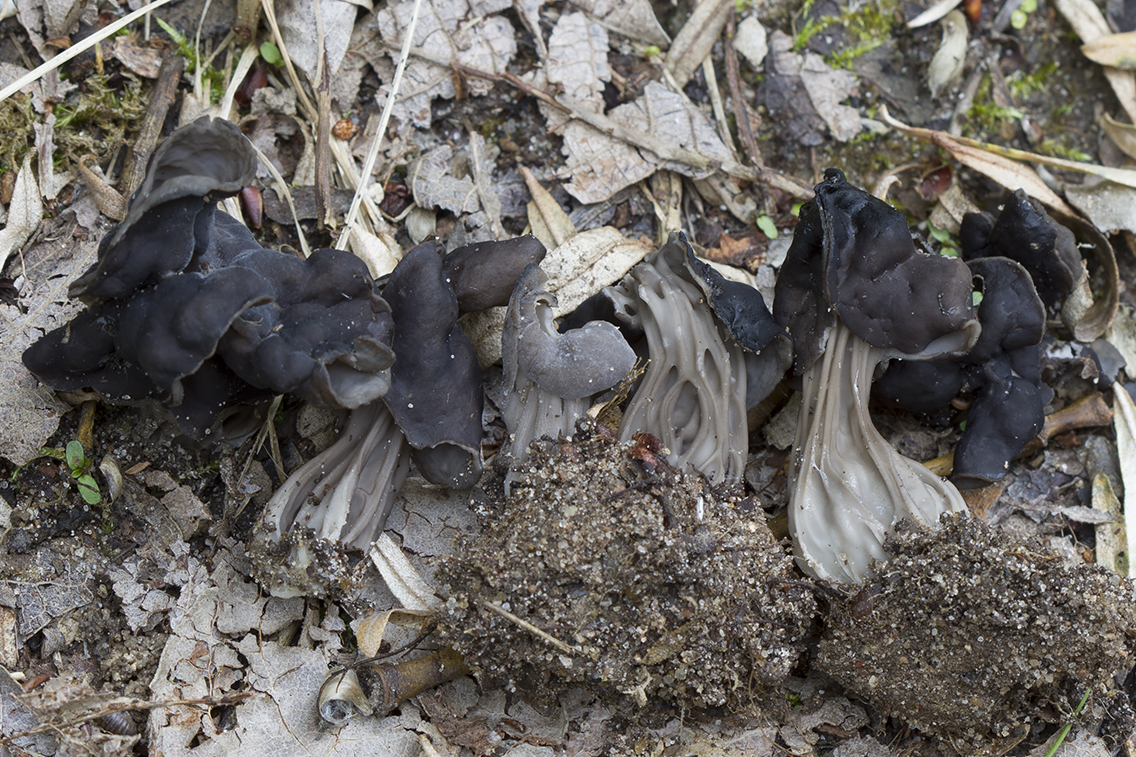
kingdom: Fungi
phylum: Ascomycota
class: Pezizomycetes
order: Pezizales
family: Helvellaceae
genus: Helvella
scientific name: Helvella lacunosa
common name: grubet foldhat
